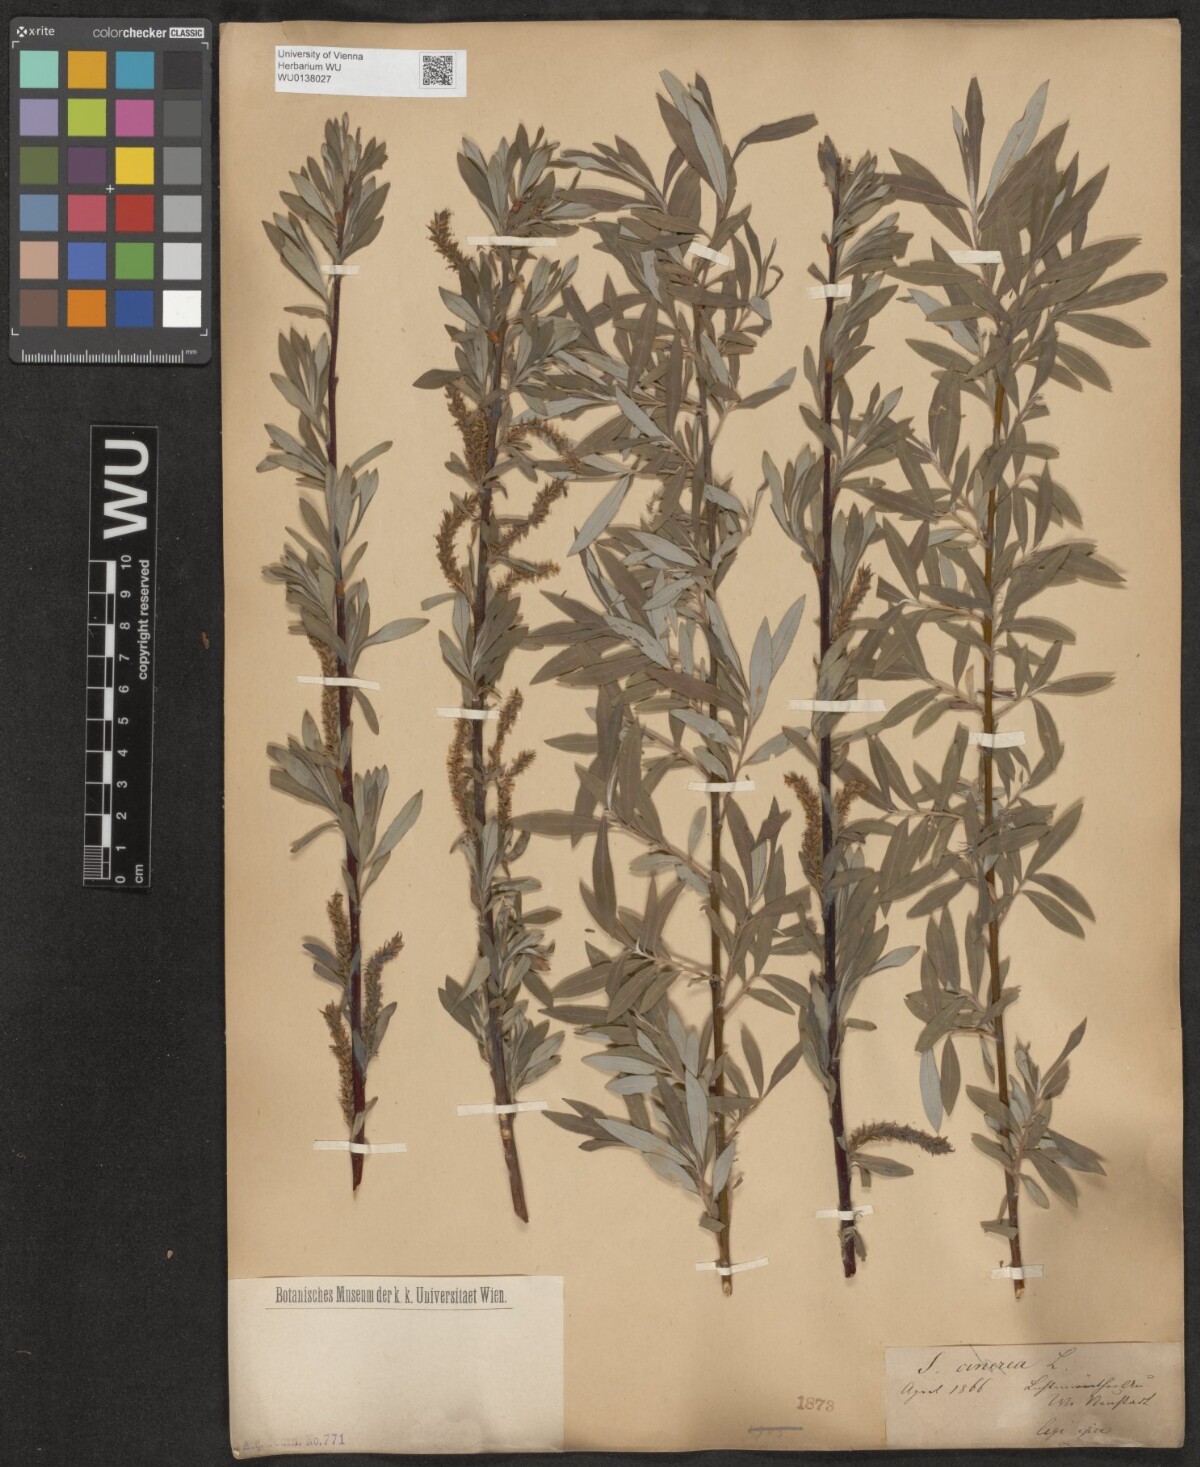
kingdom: Plantae
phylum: Tracheophyta
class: Magnoliopsida
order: Malpighiales
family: Salicaceae
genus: Salix
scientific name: Salix eleagnos
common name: Elaeagnus willow
